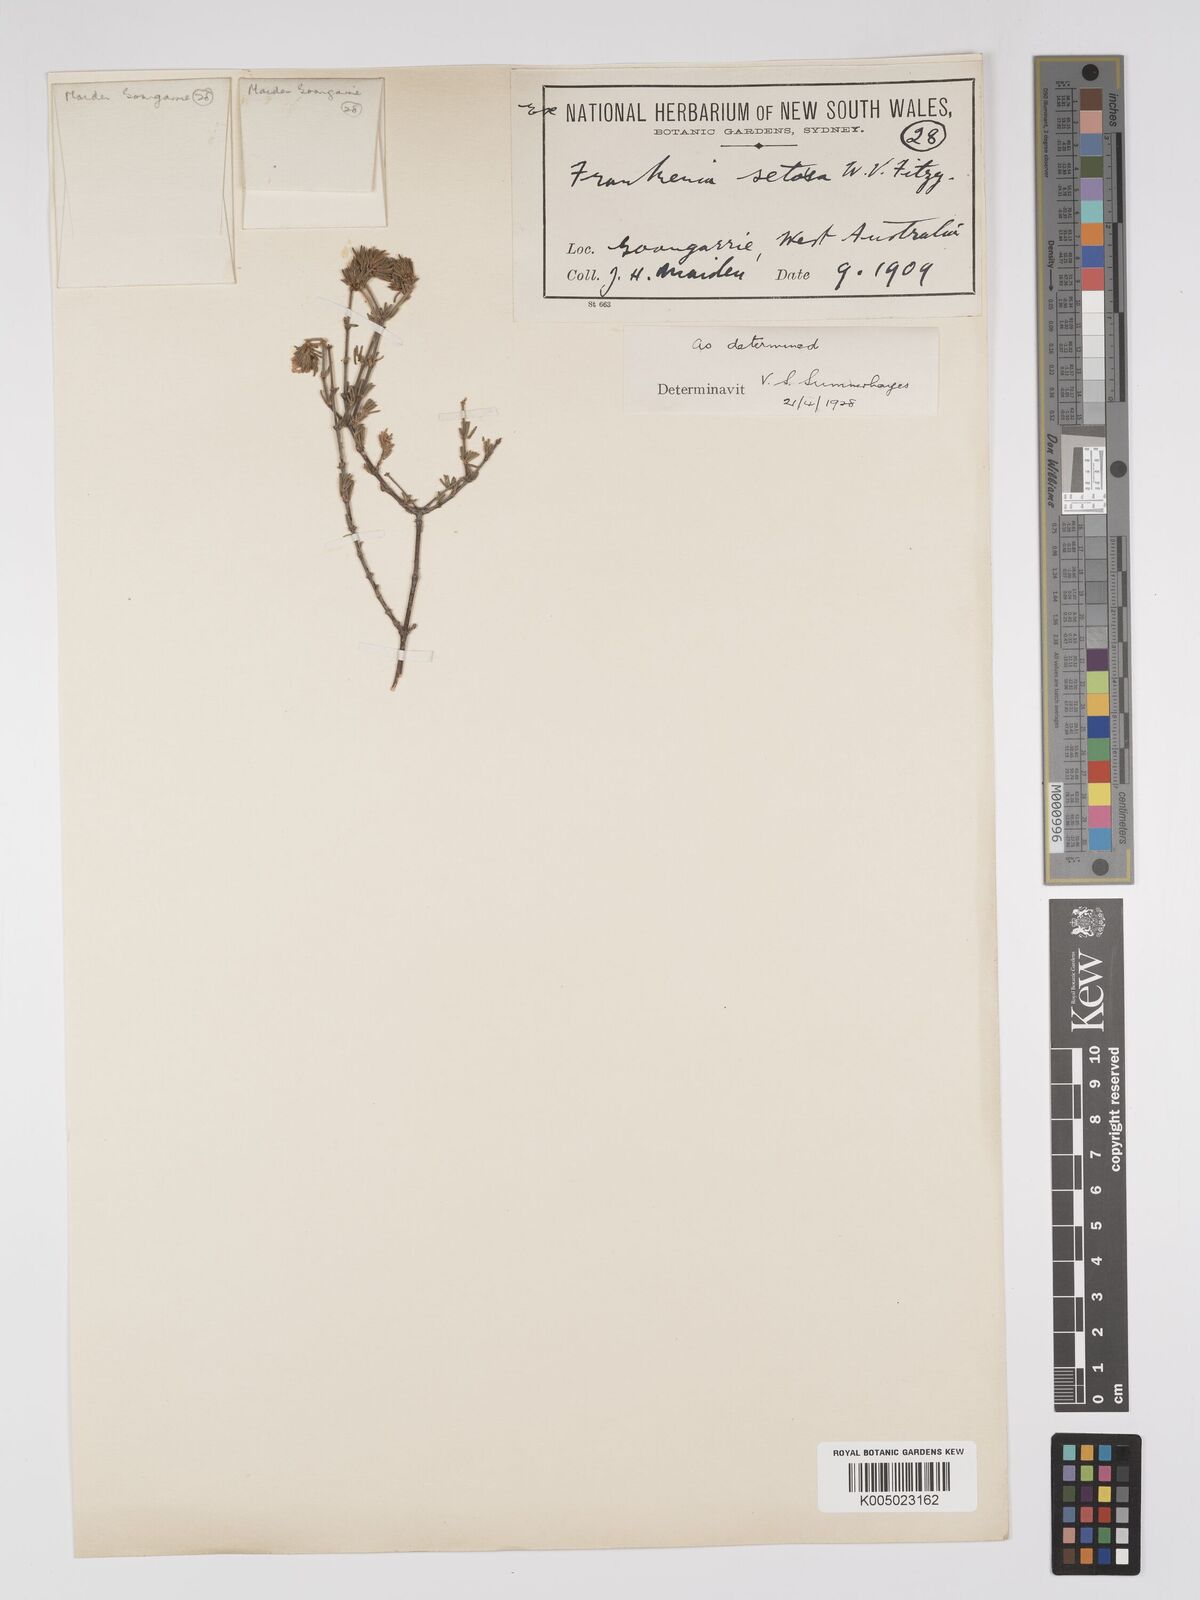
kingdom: Plantae
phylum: Tracheophyta
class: Magnoliopsida
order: Caryophyllales
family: Frankeniaceae
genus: Frankenia
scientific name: Frankenia setosa
